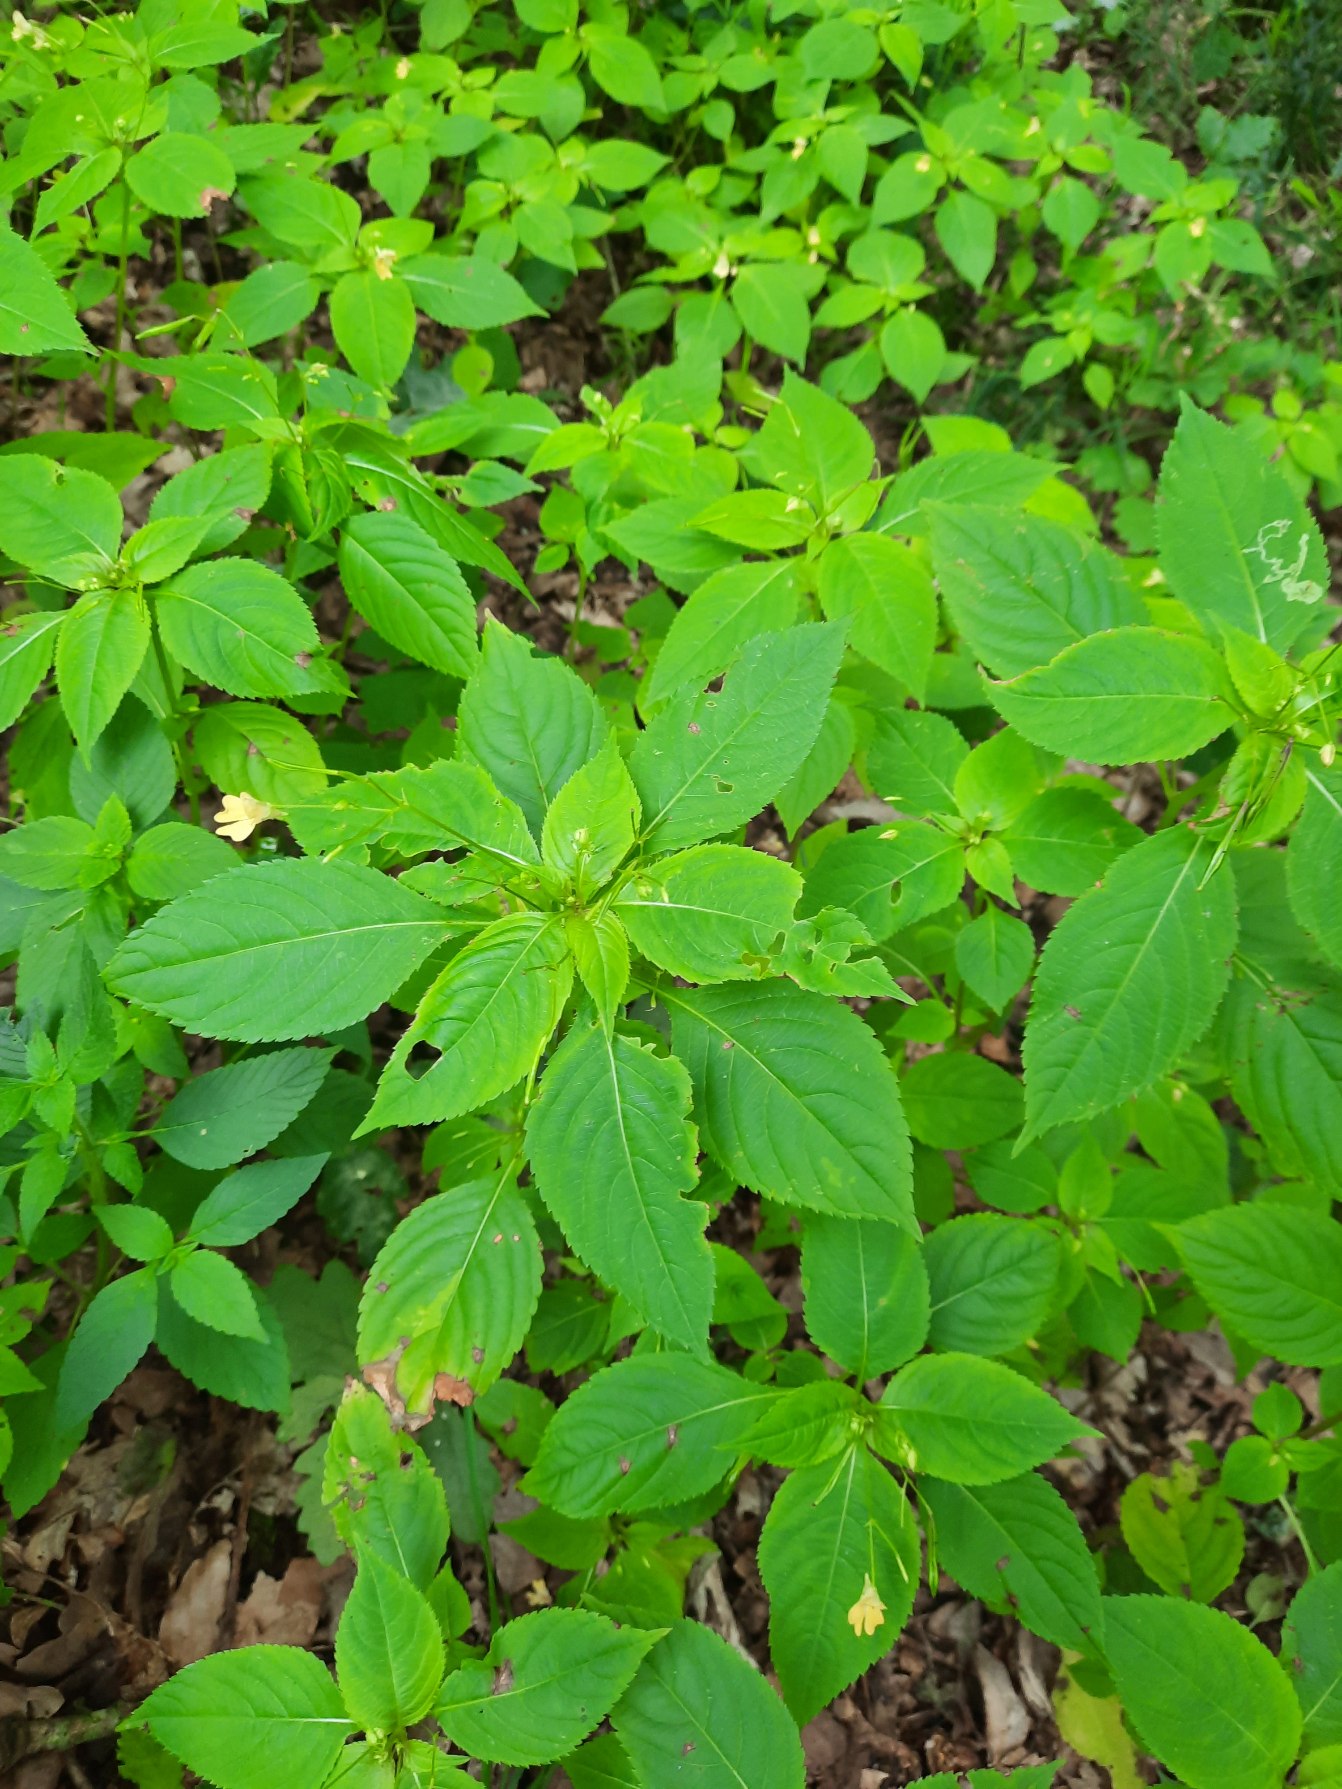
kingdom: Plantae
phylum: Tracheophyta
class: Magnoliopsida
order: Ericales
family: Balsaminaceae
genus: Impatiens
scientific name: Impatiens parviflora
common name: Småblomstret balsamin
